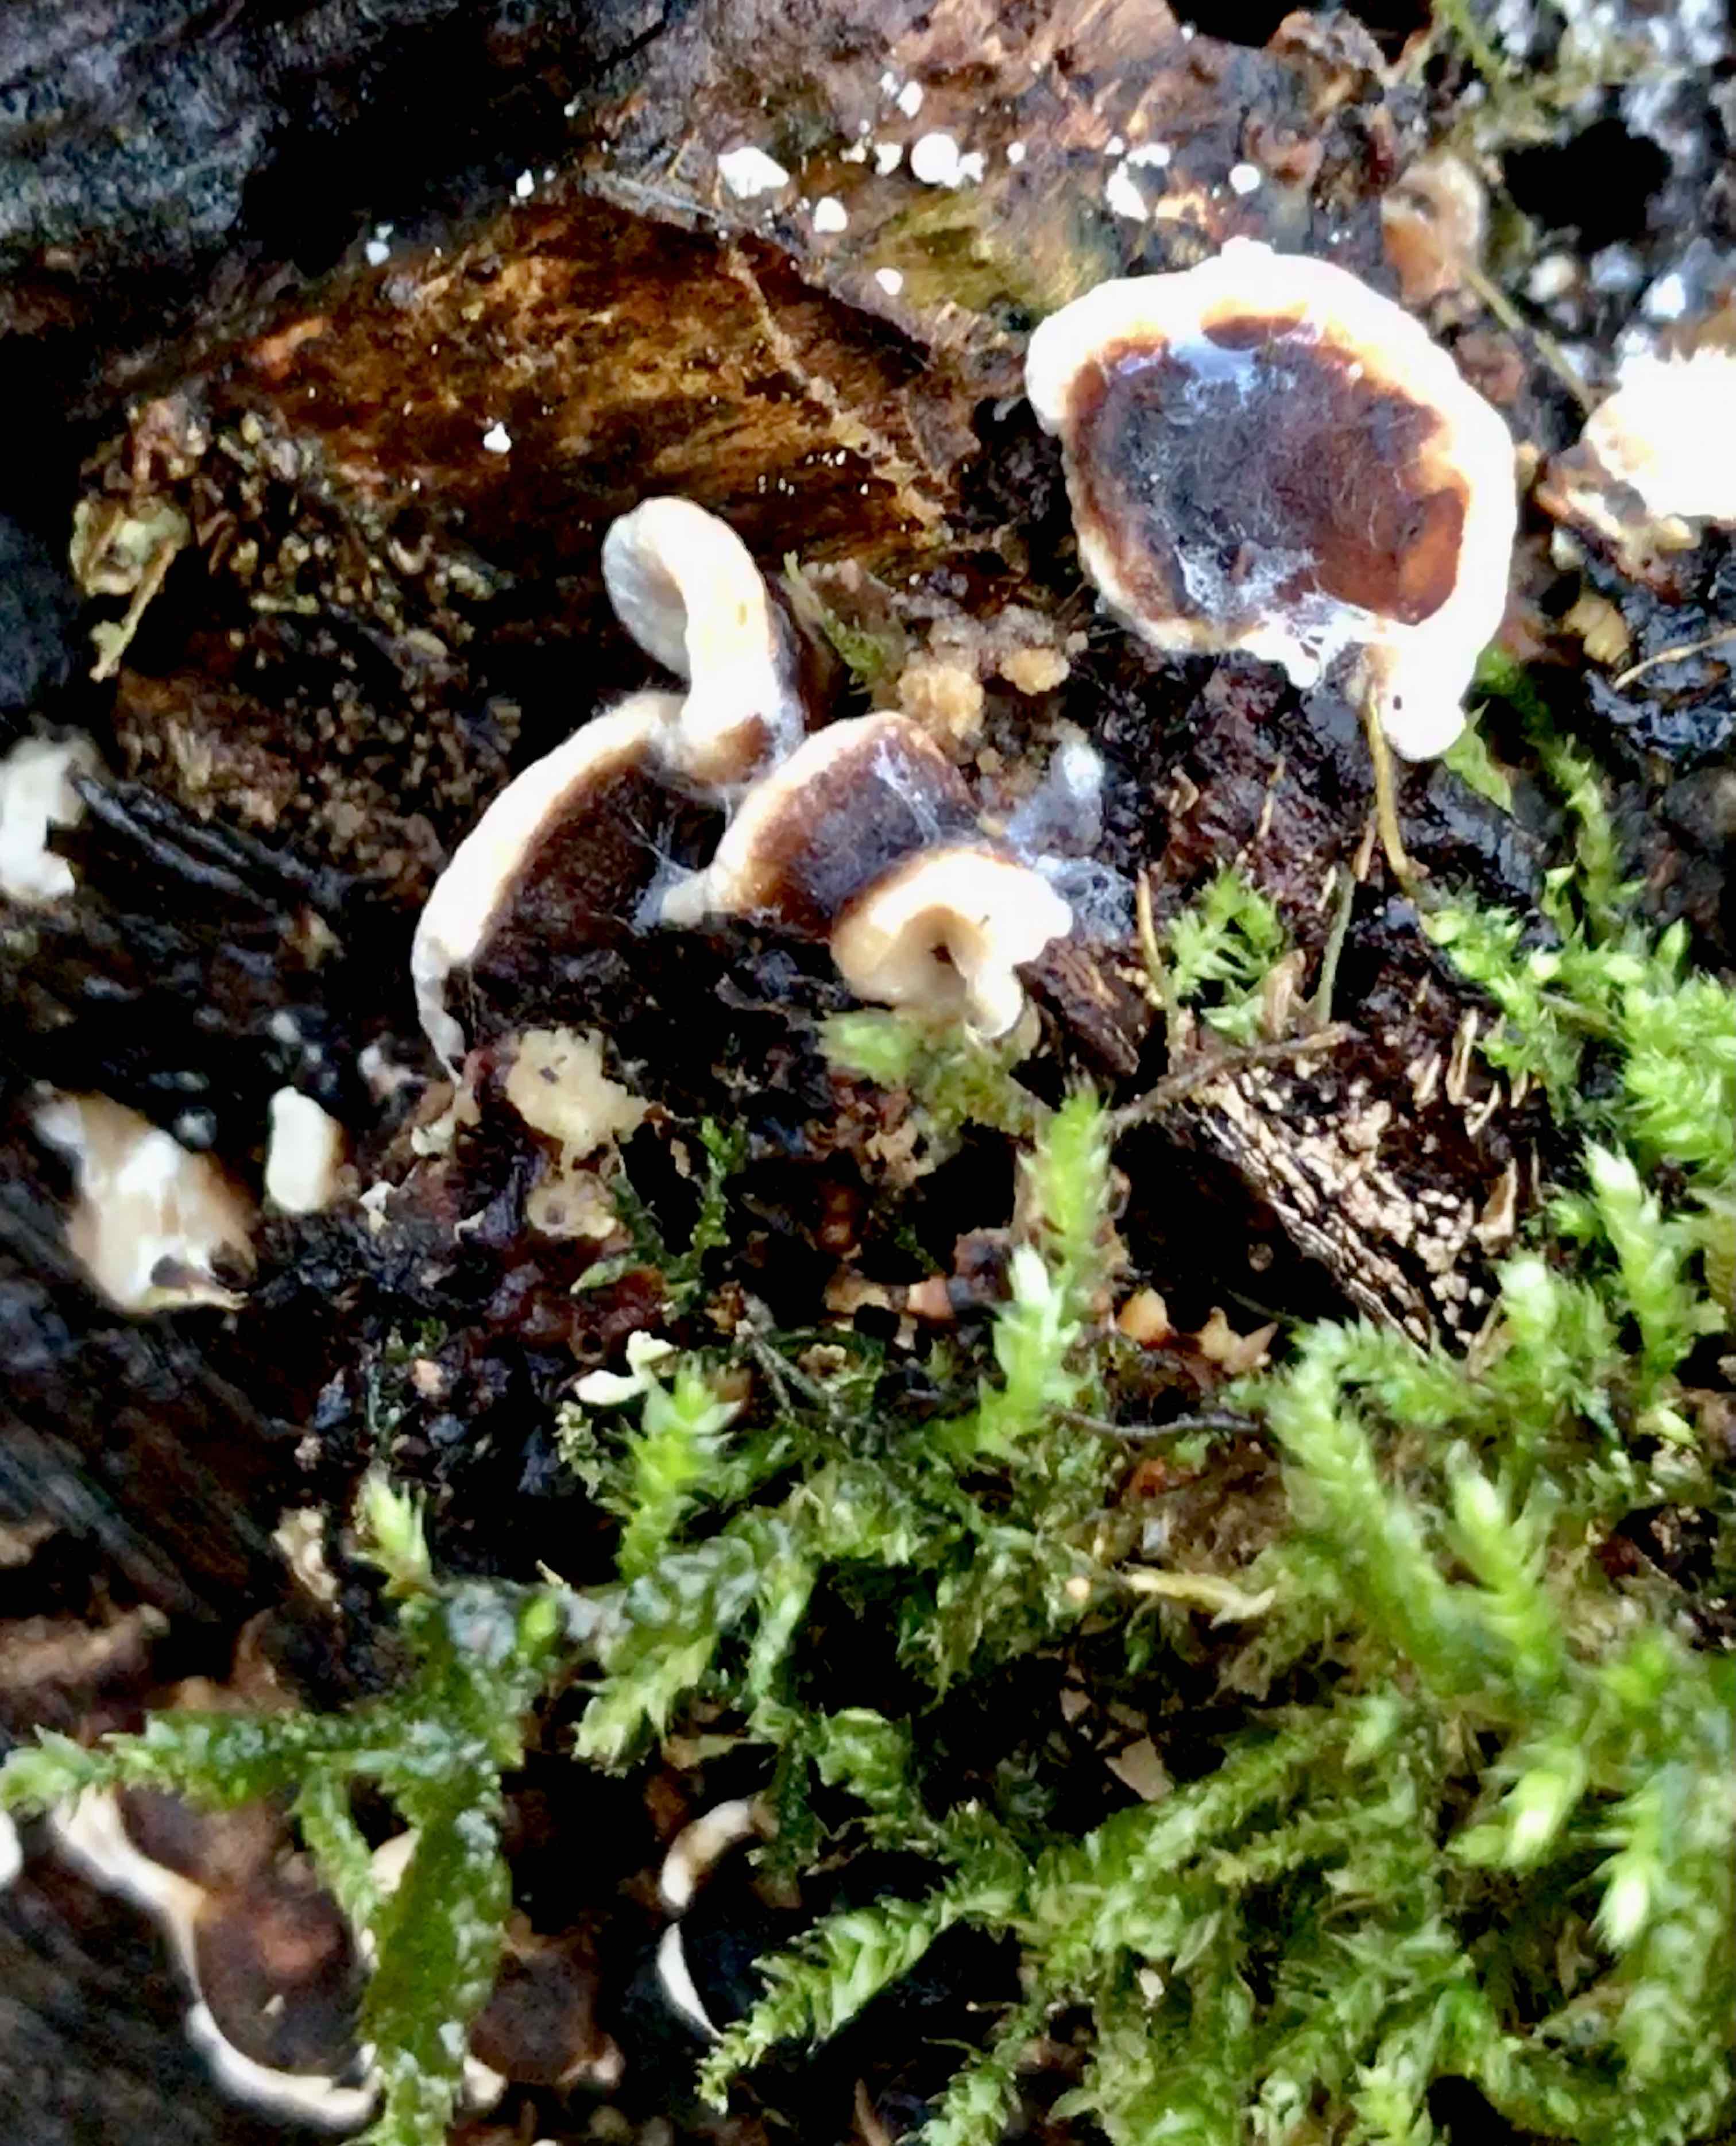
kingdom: Fungi
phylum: Basidiomycota
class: Agaricomycetes
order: Russulales
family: Bondarzewiaceae
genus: Heterobasidion
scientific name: Heterobasidion annosum
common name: almindelig rodfordærver
